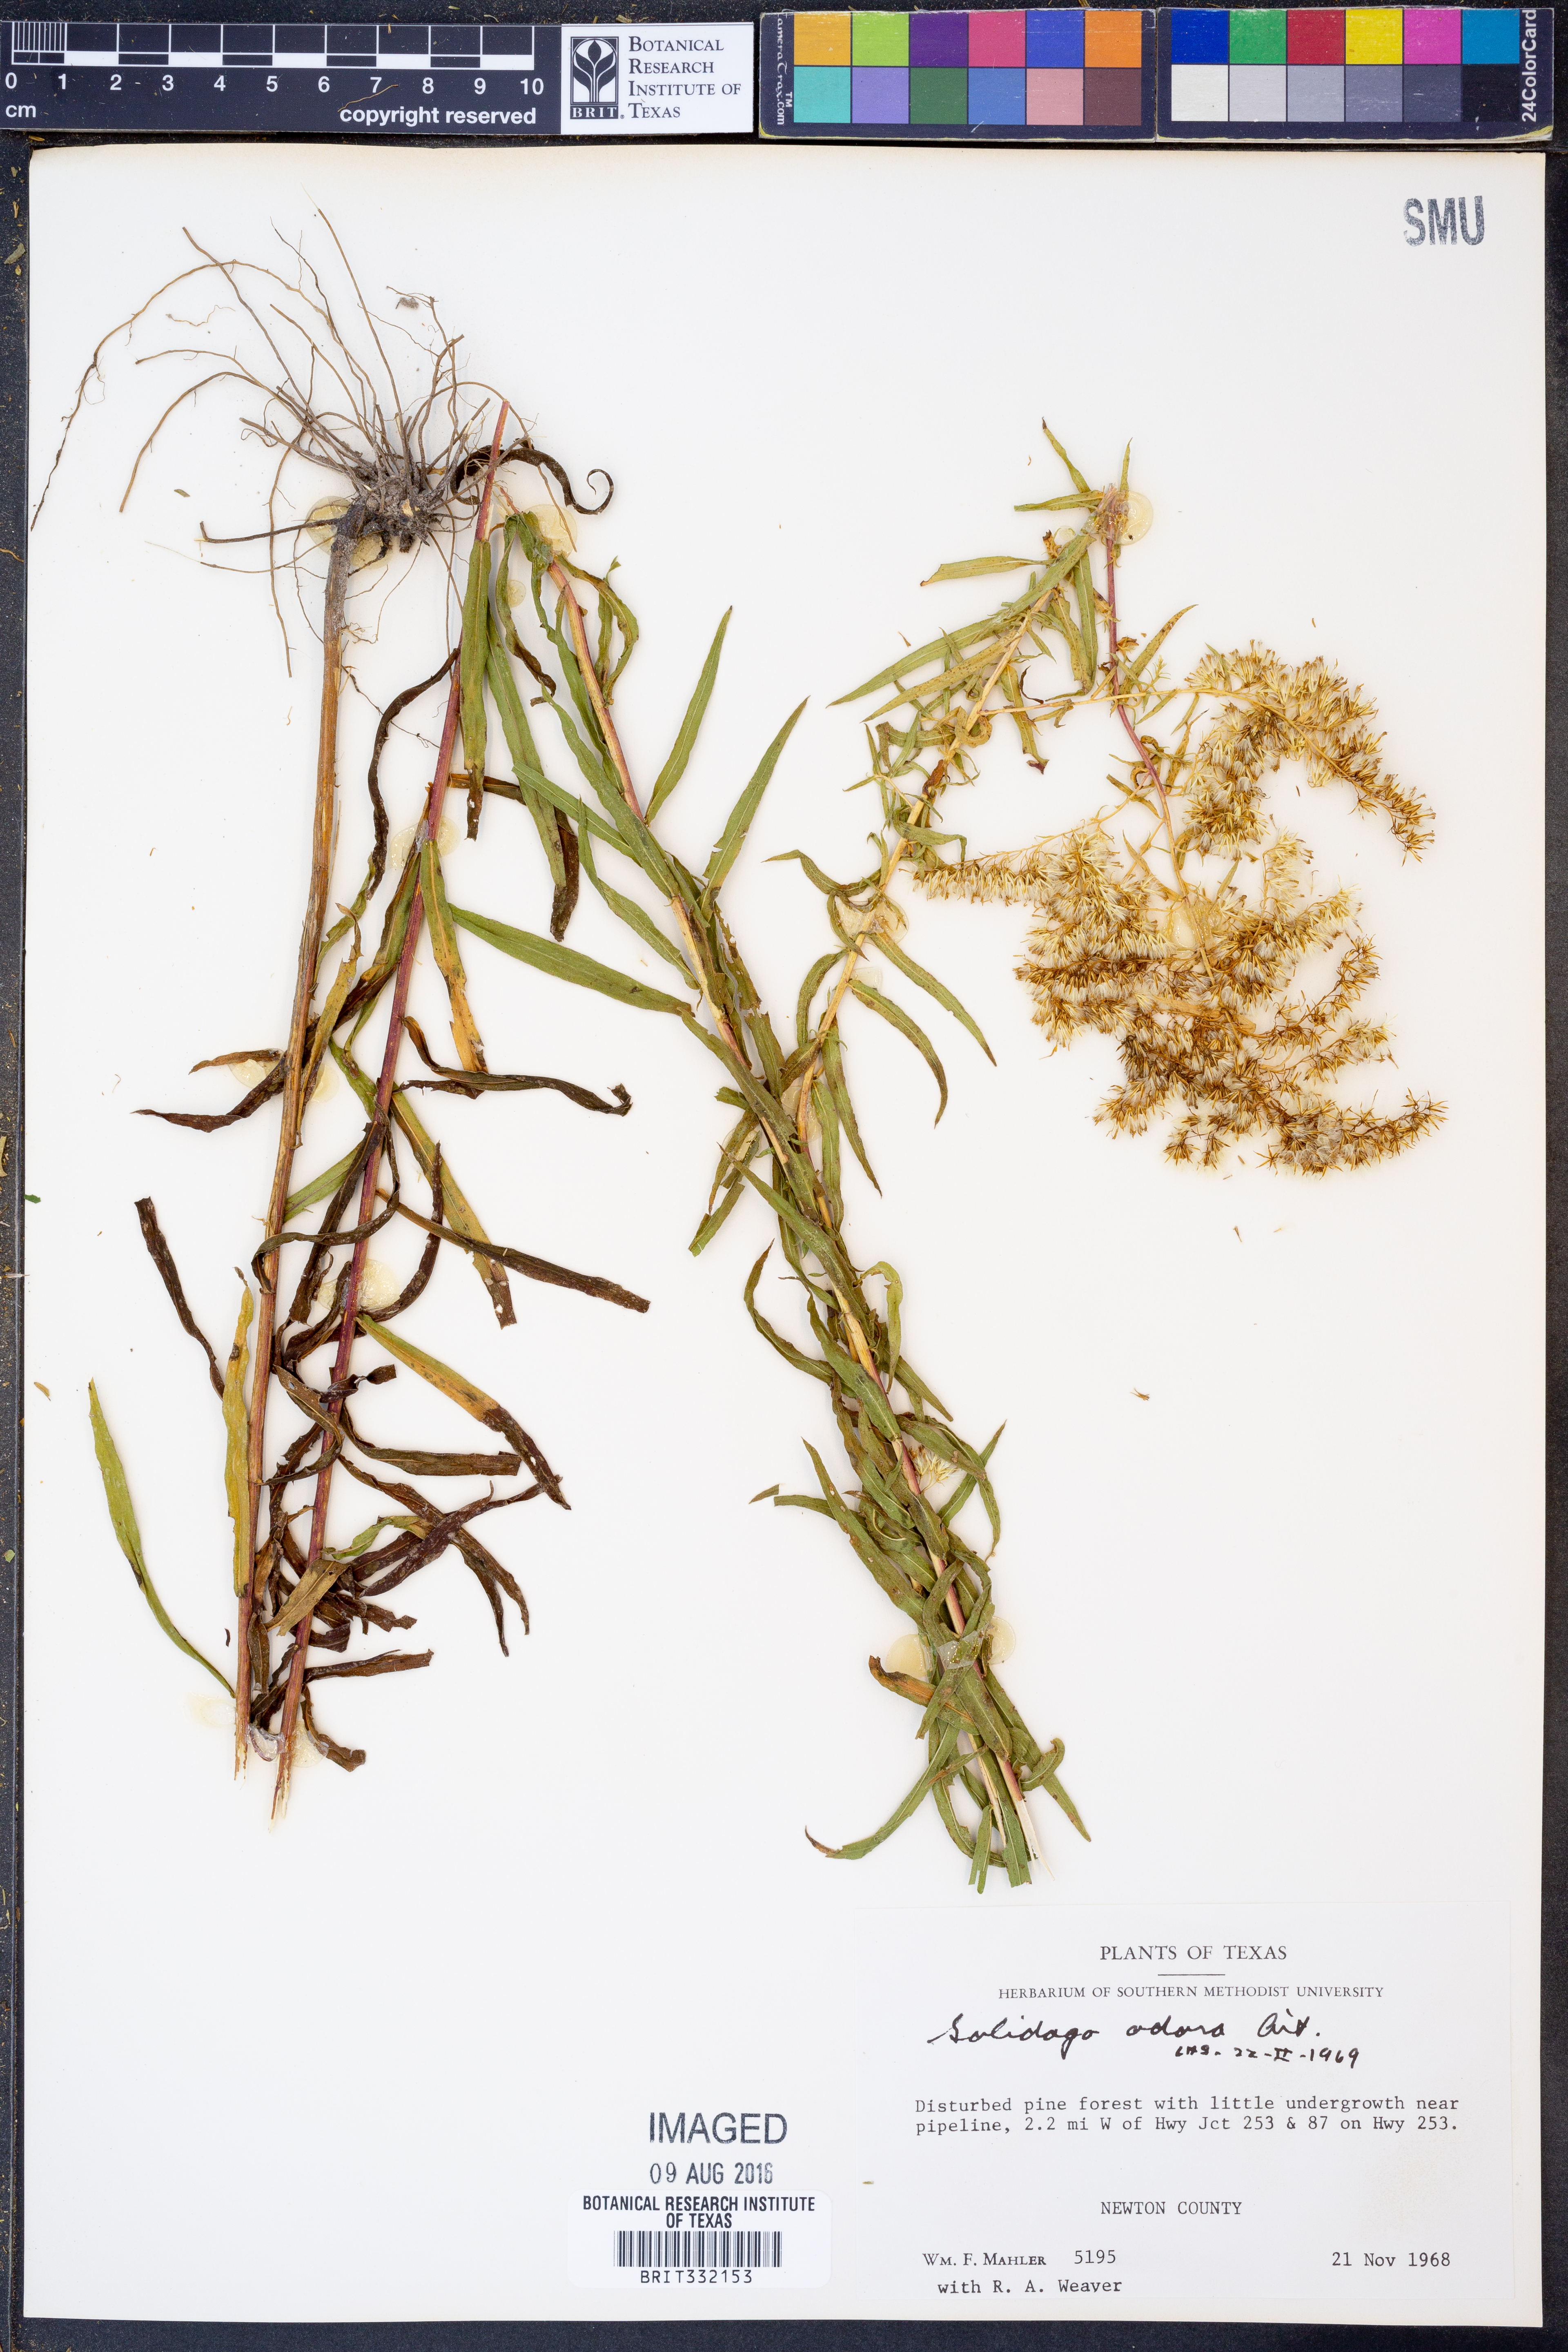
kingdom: Plantae
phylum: Tracheophyta
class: Magnoliopsida
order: Asterales
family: Asteraceae
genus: Solidago
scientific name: Solidago odora
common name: Anise-scented goldenrod
